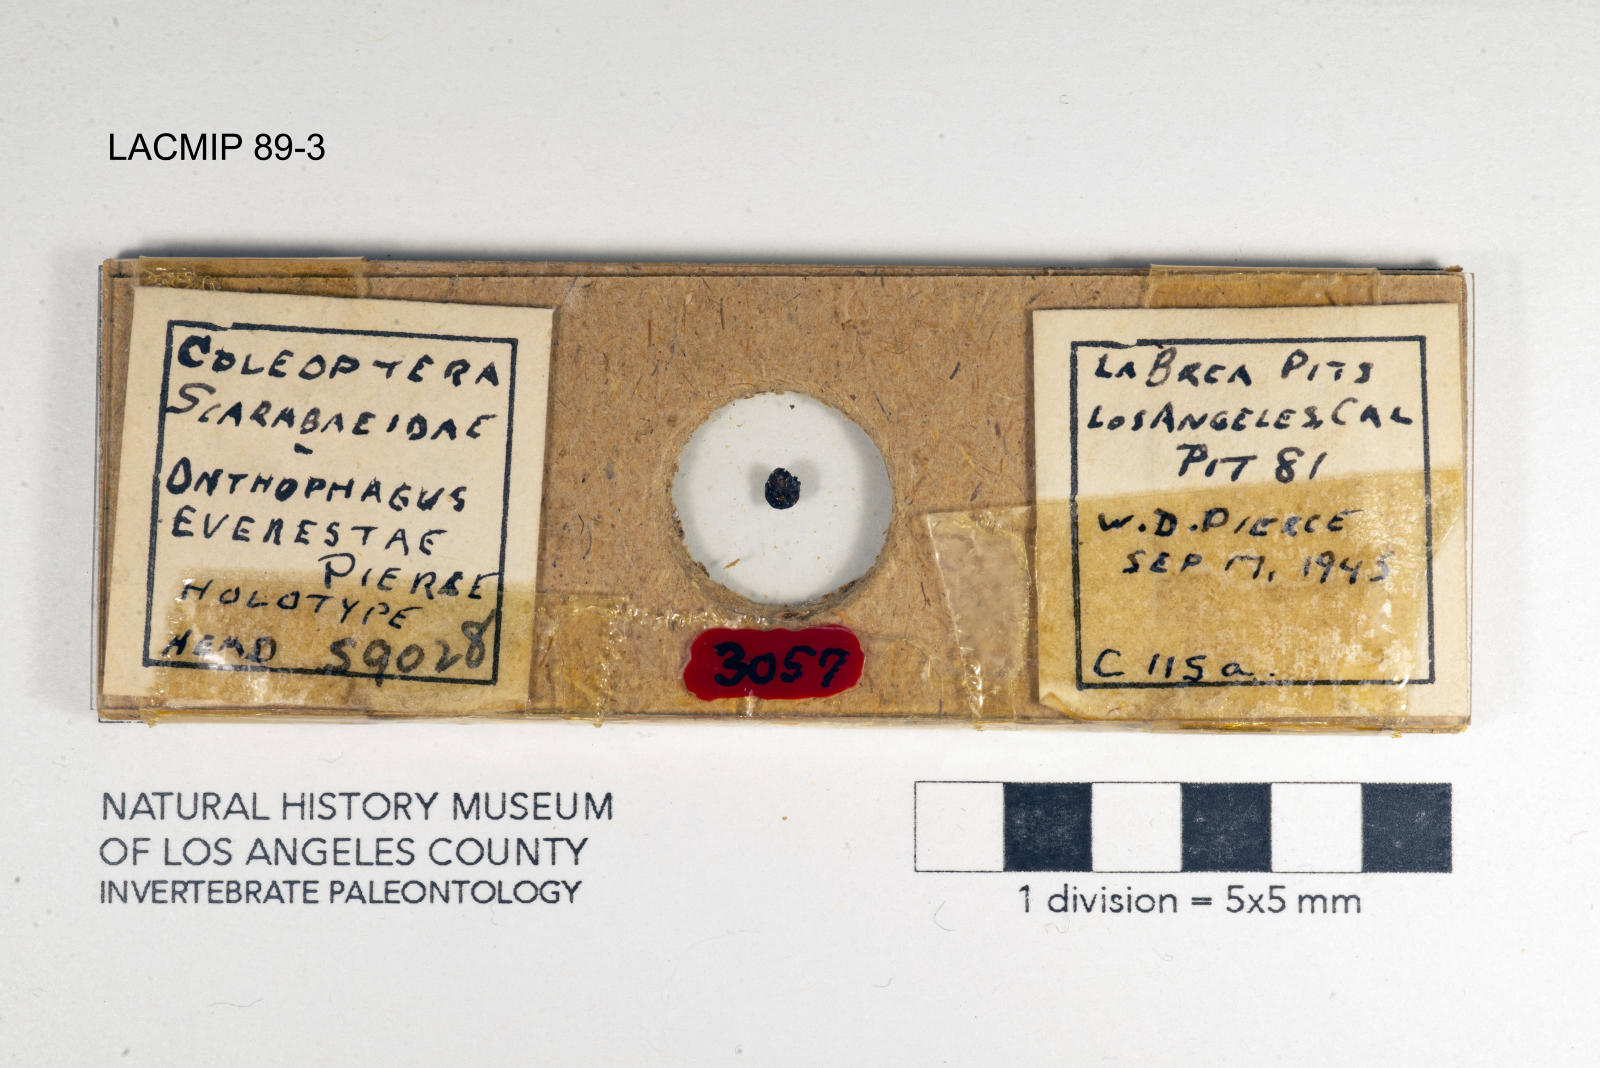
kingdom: Animalia
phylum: Arthropoda
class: Insecta
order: Coleoptera
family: Scarabaeidae
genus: Copris
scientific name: Copris pristinus
